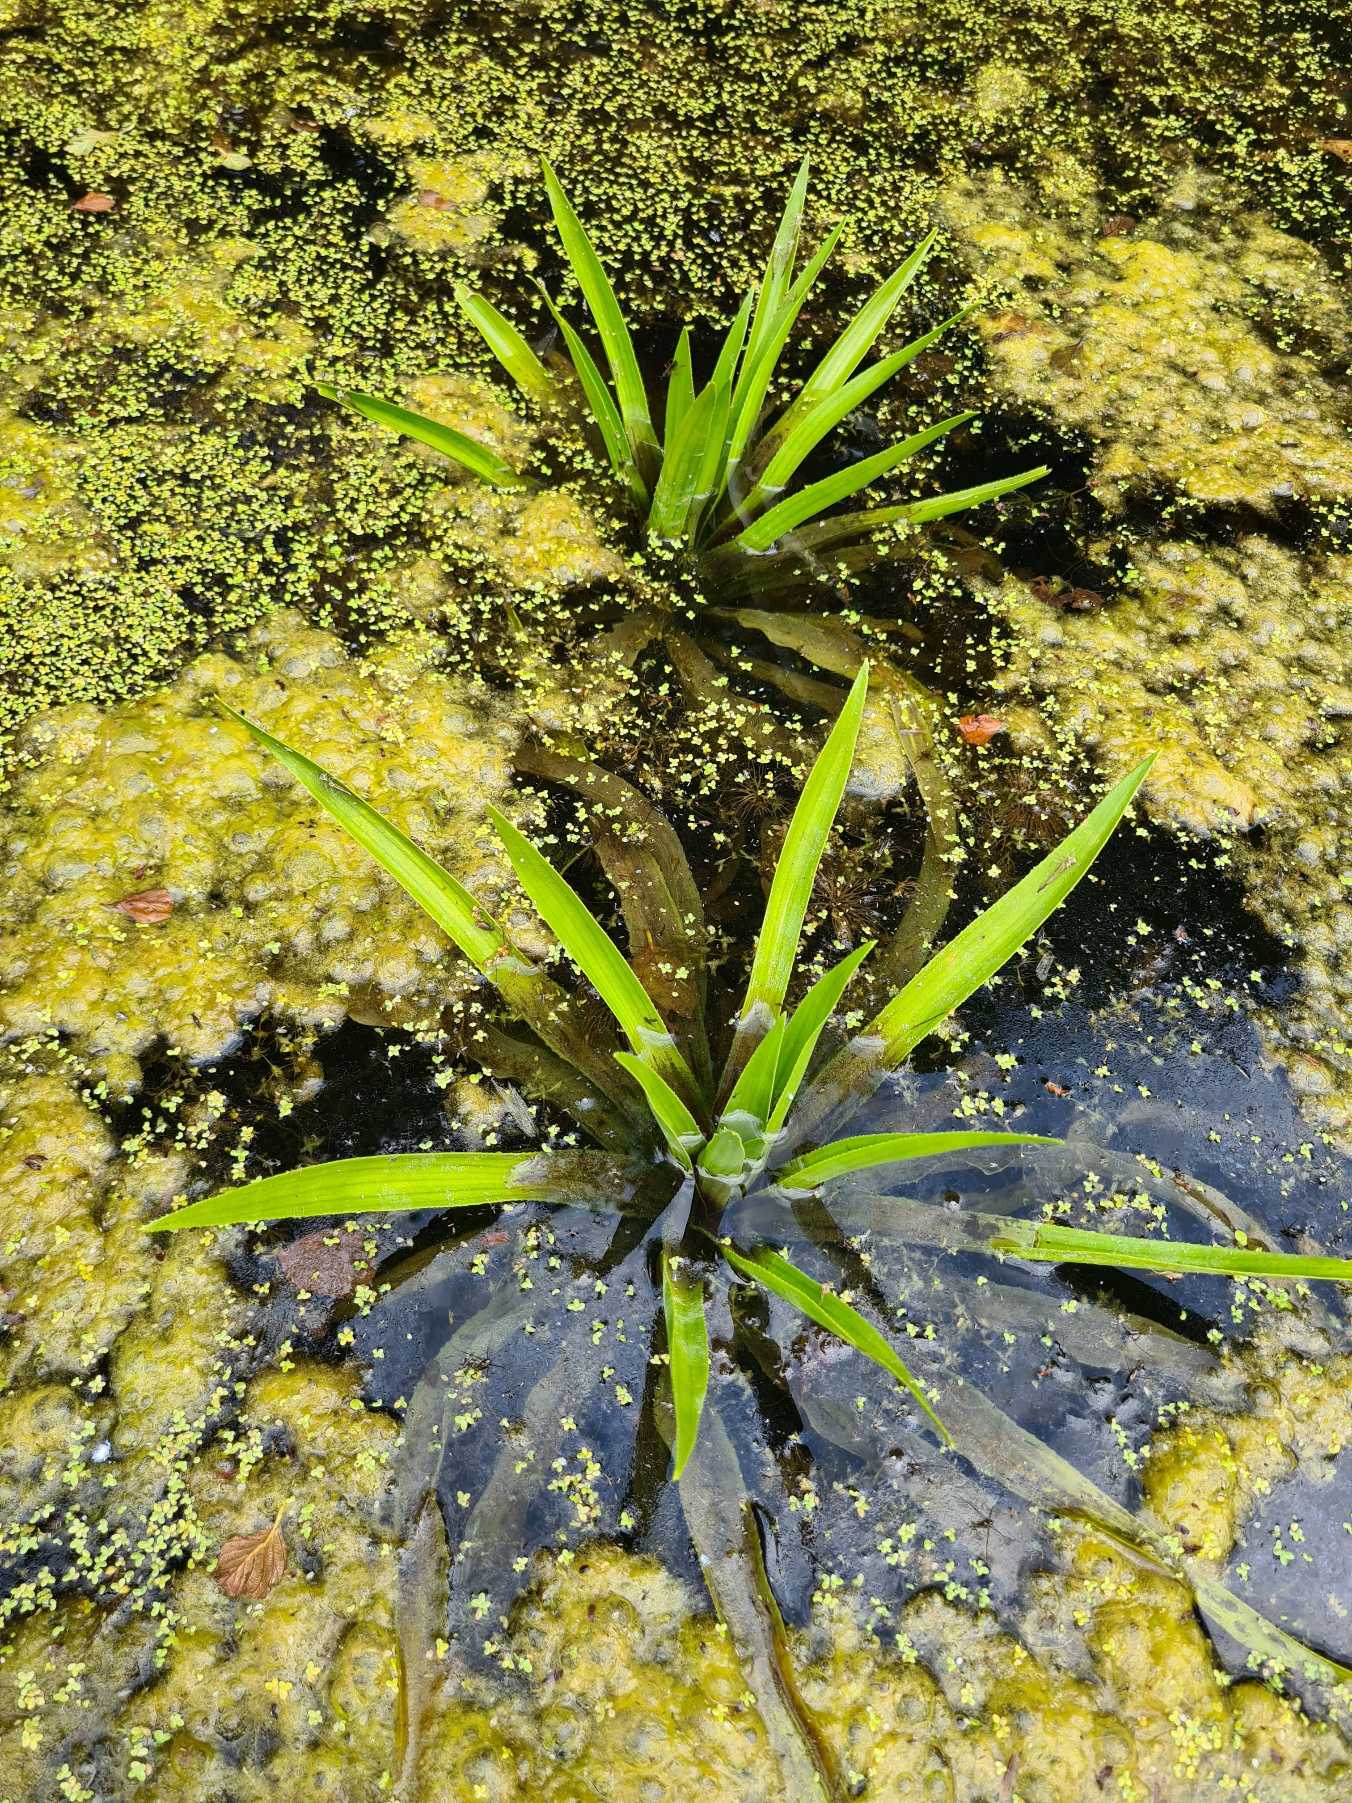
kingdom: Plantae
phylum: Tracheophyta
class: Liliopsida
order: Alismatales
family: Hydrocharitaceae
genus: Stratiotes
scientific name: Stratiotes aloides
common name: Krebseklo
